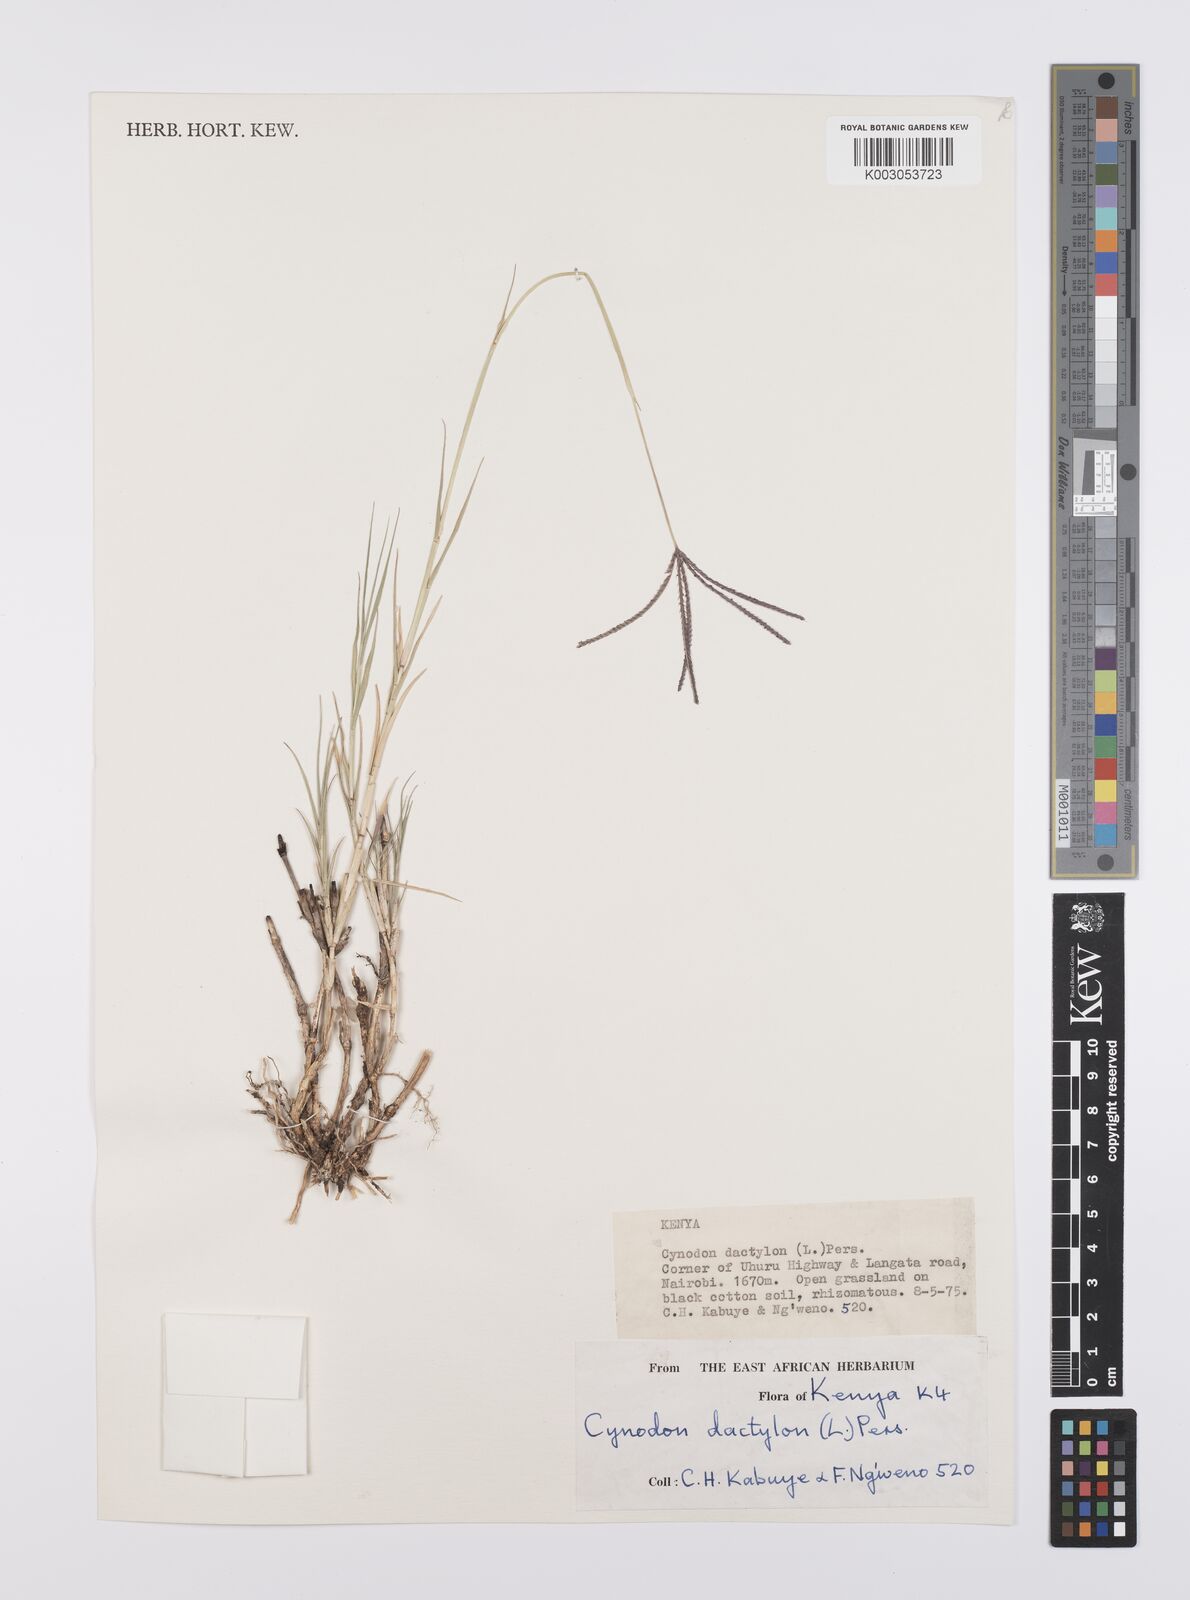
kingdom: Plantae
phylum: Tracheophyta
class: Liliopsida
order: Poales
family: Poaceae
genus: Cynodon
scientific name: Cynodon dactylon
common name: Bermuda grass
